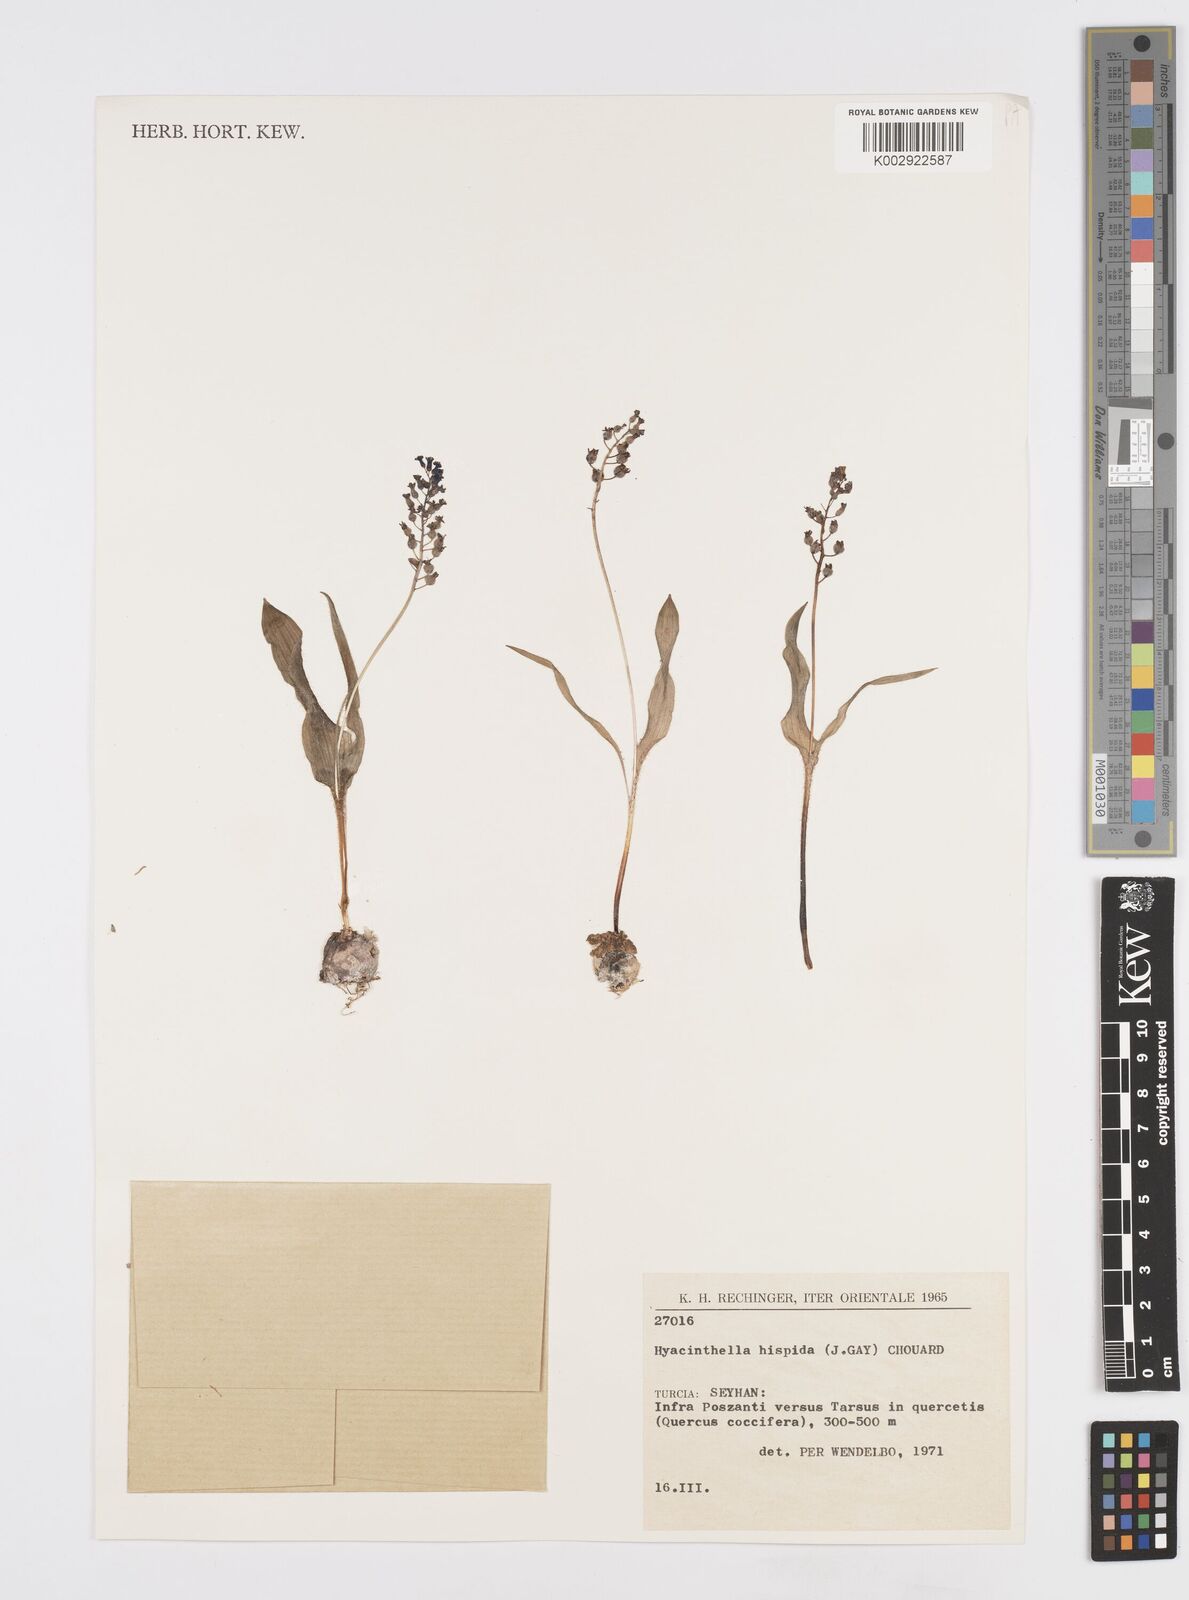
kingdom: Plantae
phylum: Tracheophyta
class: Liliopsida
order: Asparagales
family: Asparagaceae
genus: Hyacinthella
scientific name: Hyacinthella hispida
